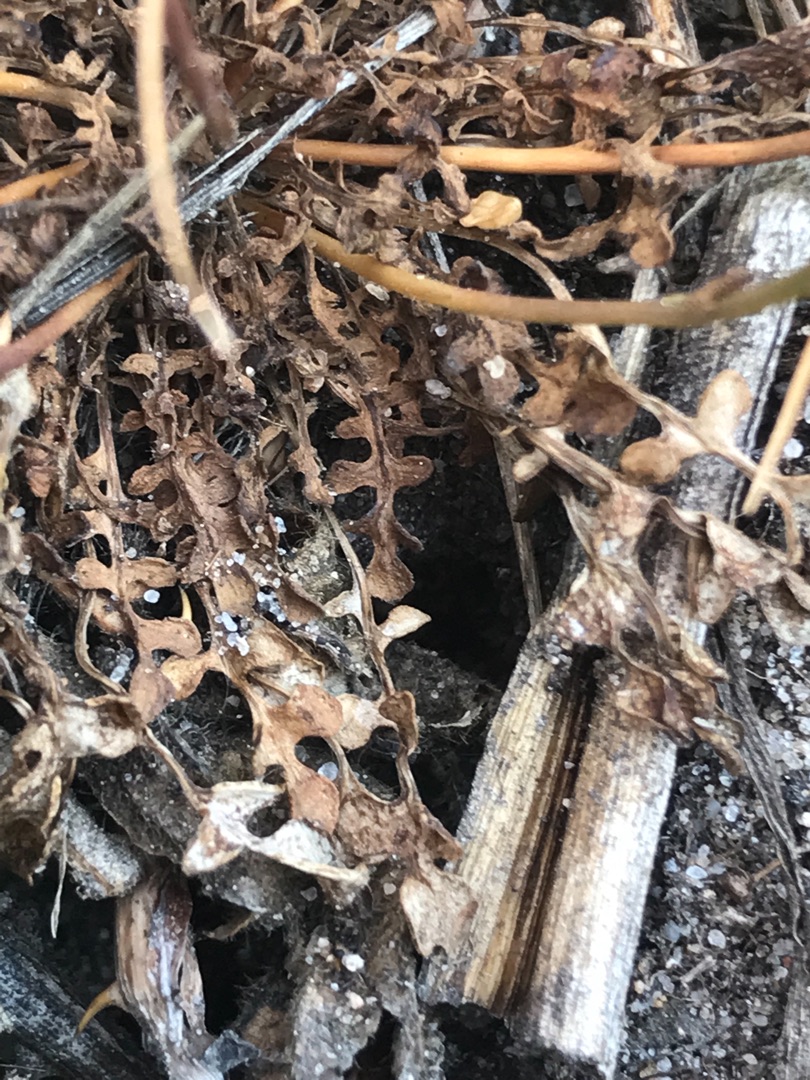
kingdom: Plantae
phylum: Tracheophyta
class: Magnoliopsida
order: Brassicales
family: Brassicaceae
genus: Teesdalia
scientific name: Teesdalia nudicaulis
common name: Flipkrave
